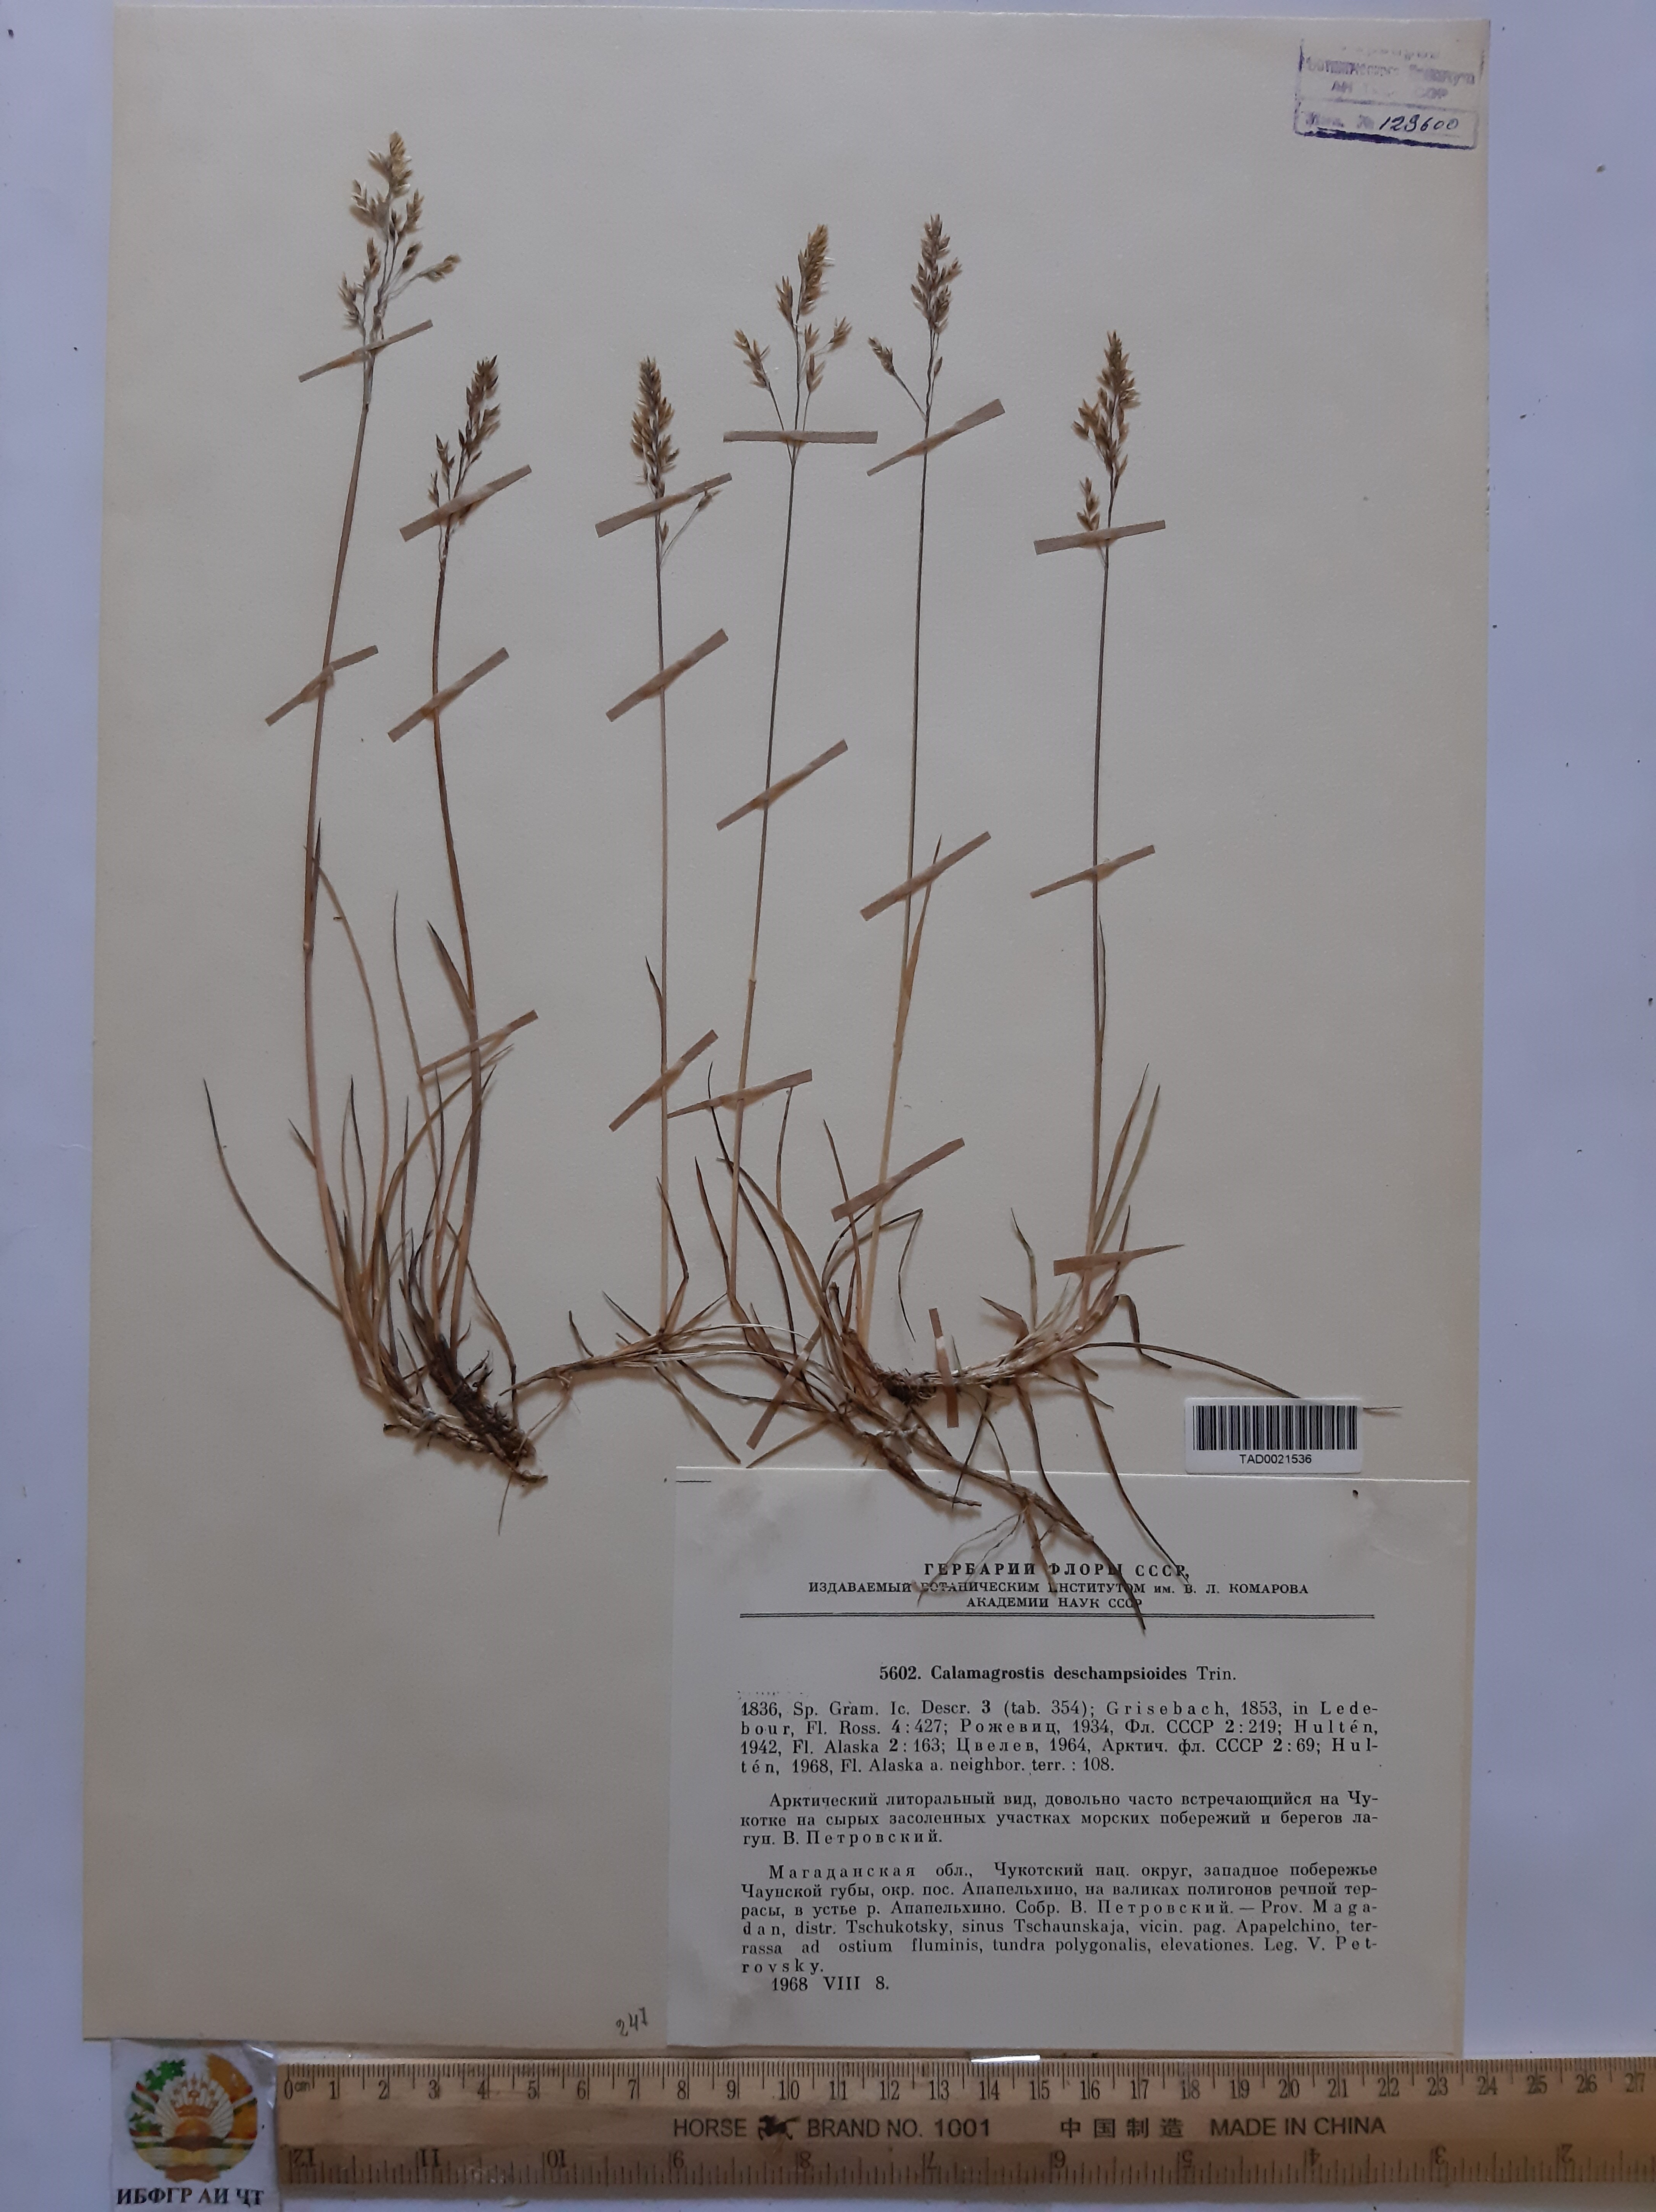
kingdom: Plantae
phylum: Tracheophyta
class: Liliopsida
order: Poales
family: Poaceae
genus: Calamagrostis
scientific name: Calamagrostis deschampsioides
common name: Circumpolar reedgrass
